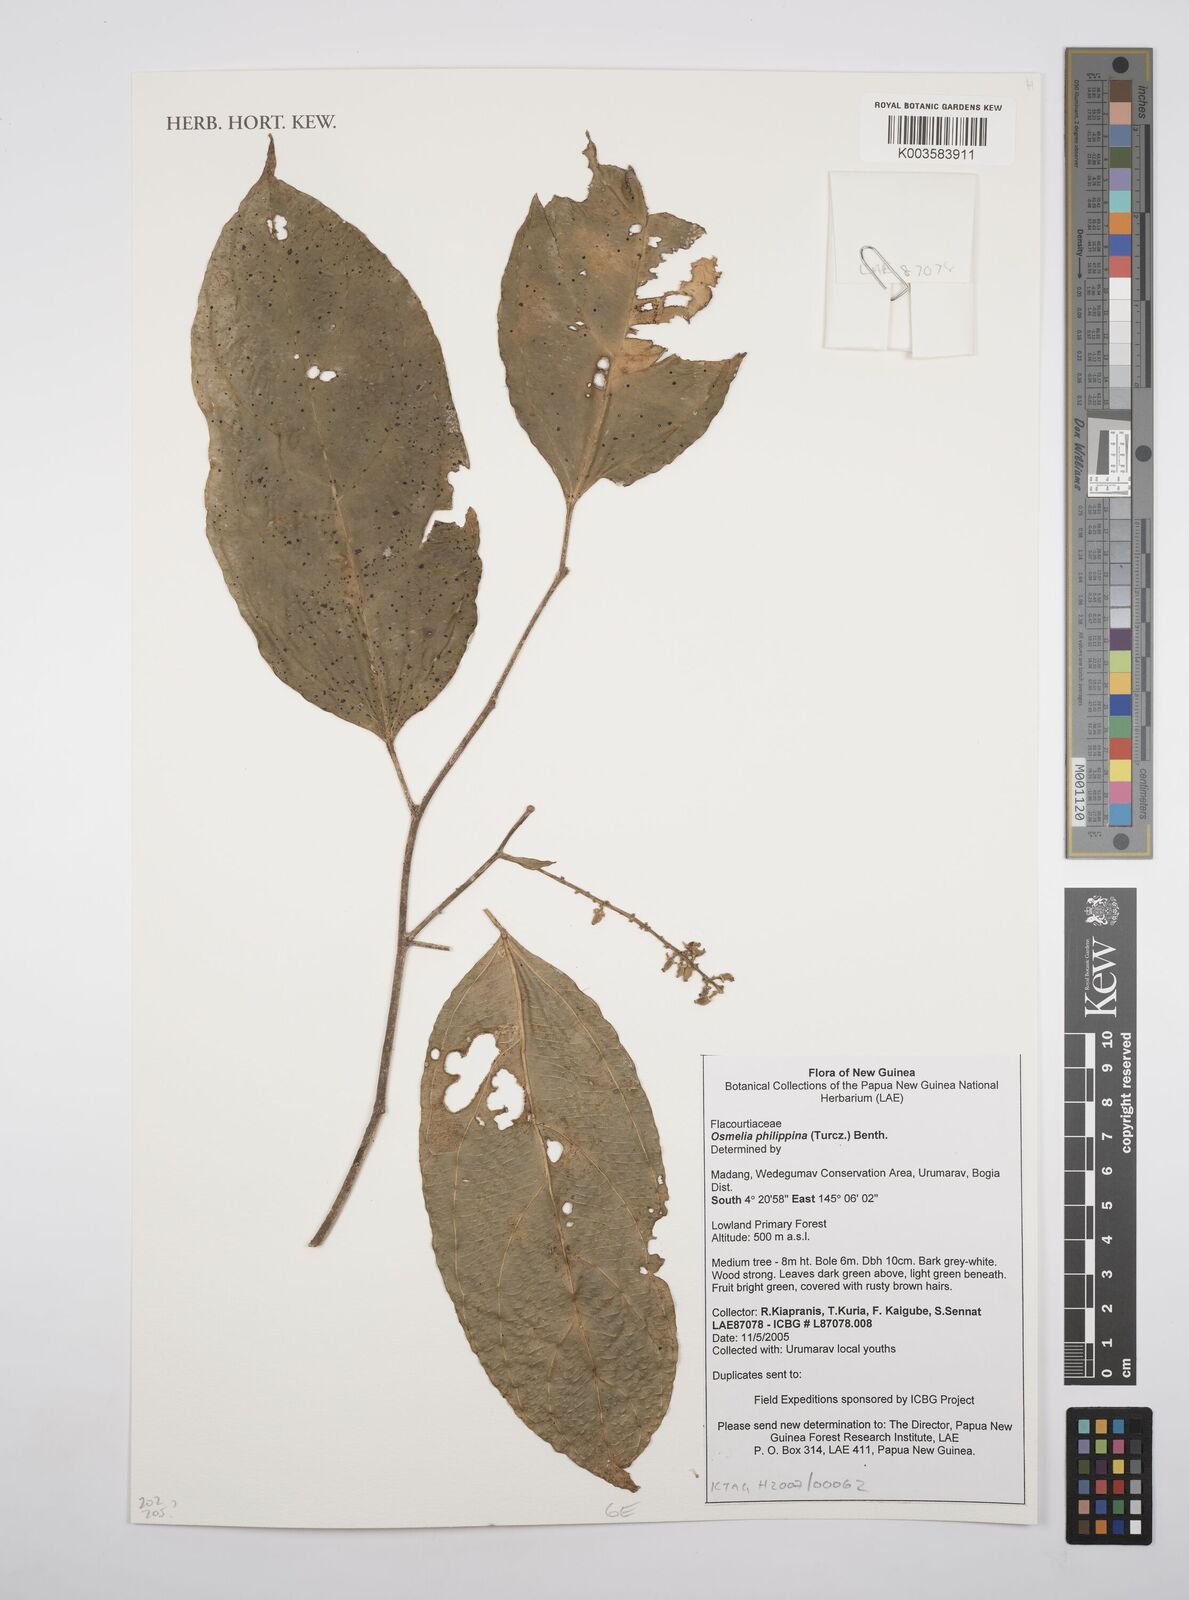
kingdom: Plantae
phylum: Tracheophyta
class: Magnoliopsida
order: Malpighiales
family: Salicaceae
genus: Osmelia
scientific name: Osmelia philippina
